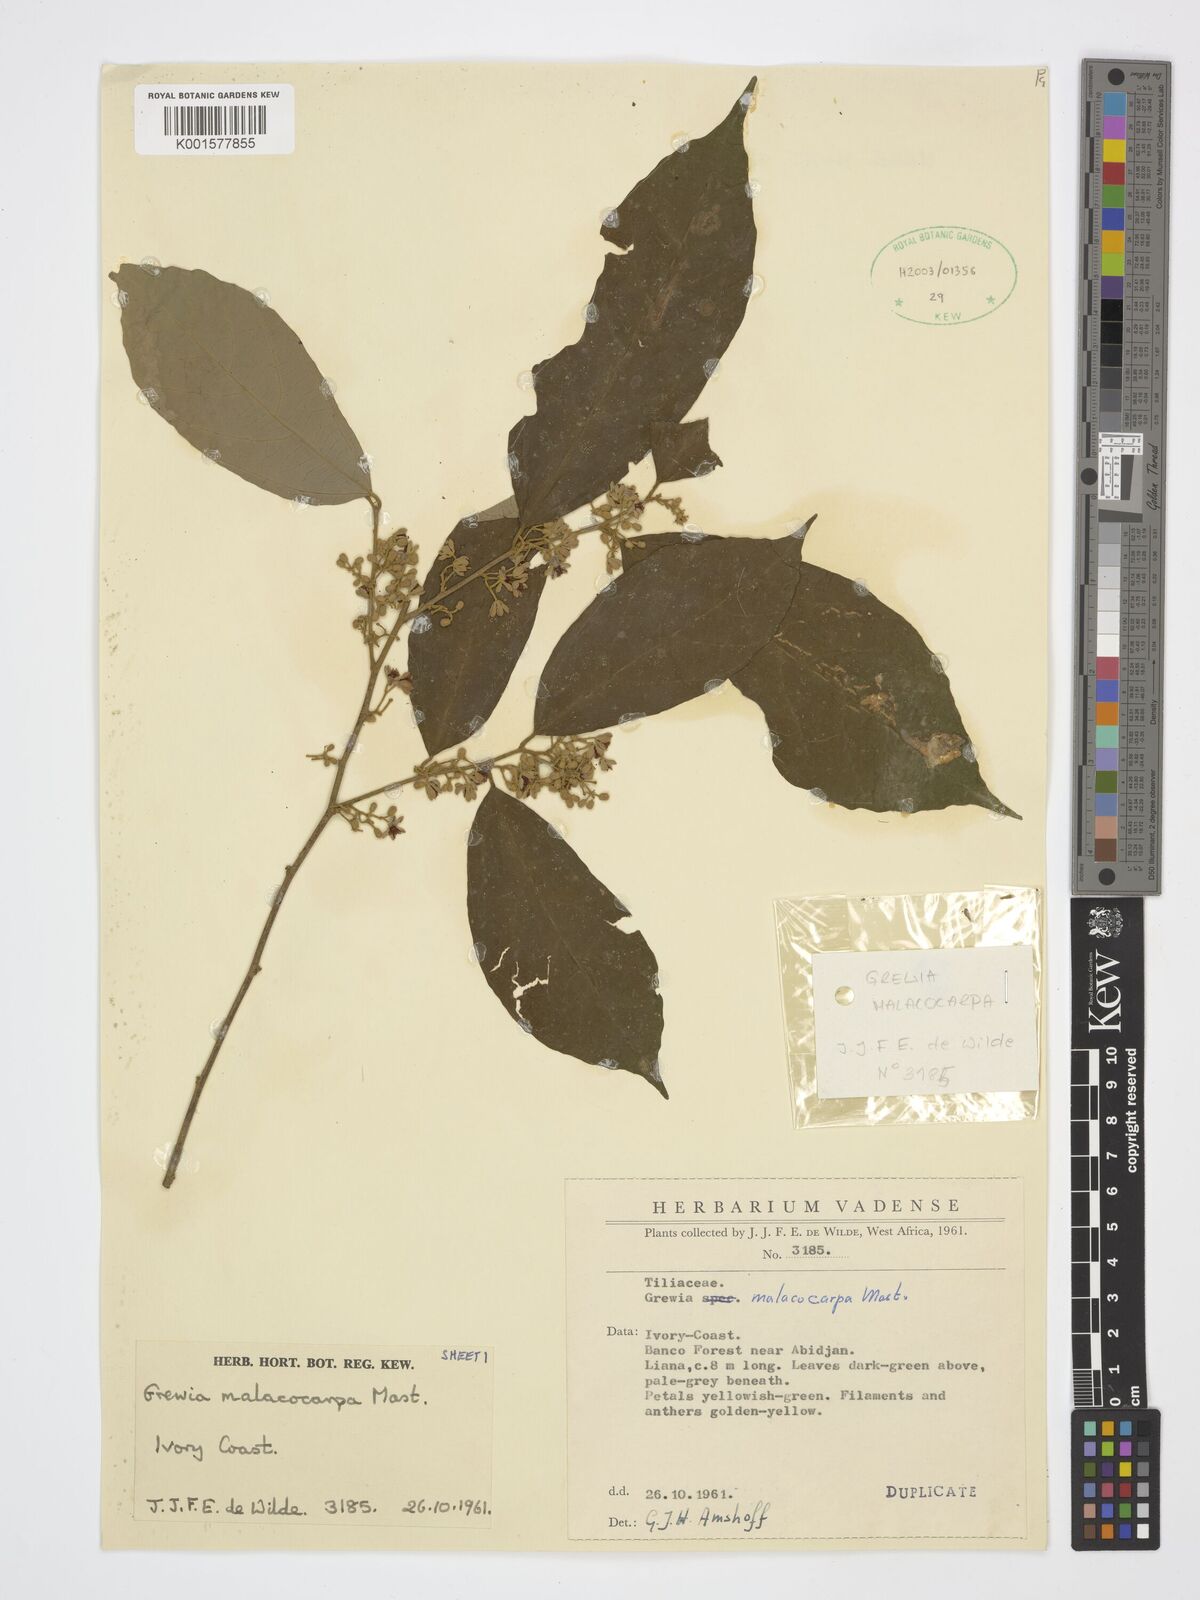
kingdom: Plantae
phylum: Tracheophyta
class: Magnoliopsida
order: Malvales
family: Malvaceae
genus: Microcos
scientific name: Microcos malacocarpa
